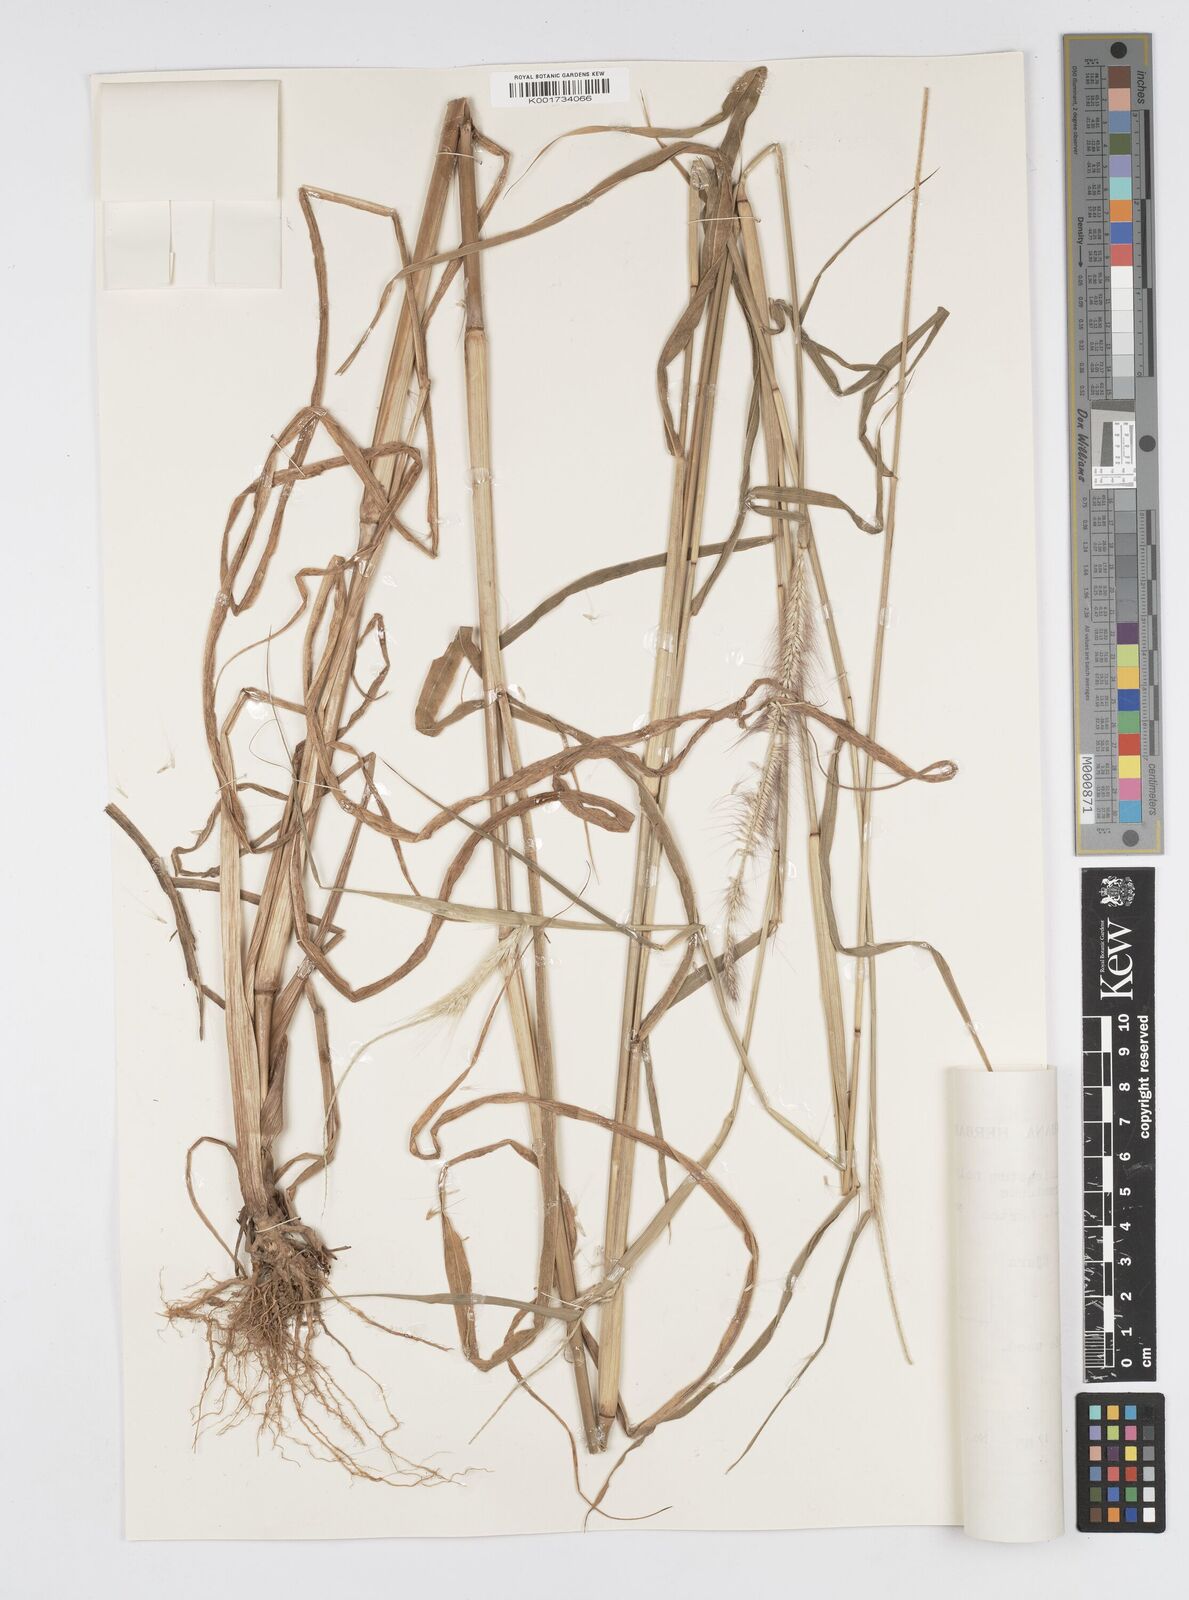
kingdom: Plantae
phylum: Tracheophyta
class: Liliopsida
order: Poales
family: Poaceae
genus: Setaria
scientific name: Setaria parviflora
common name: Knotroot bristle-grass
